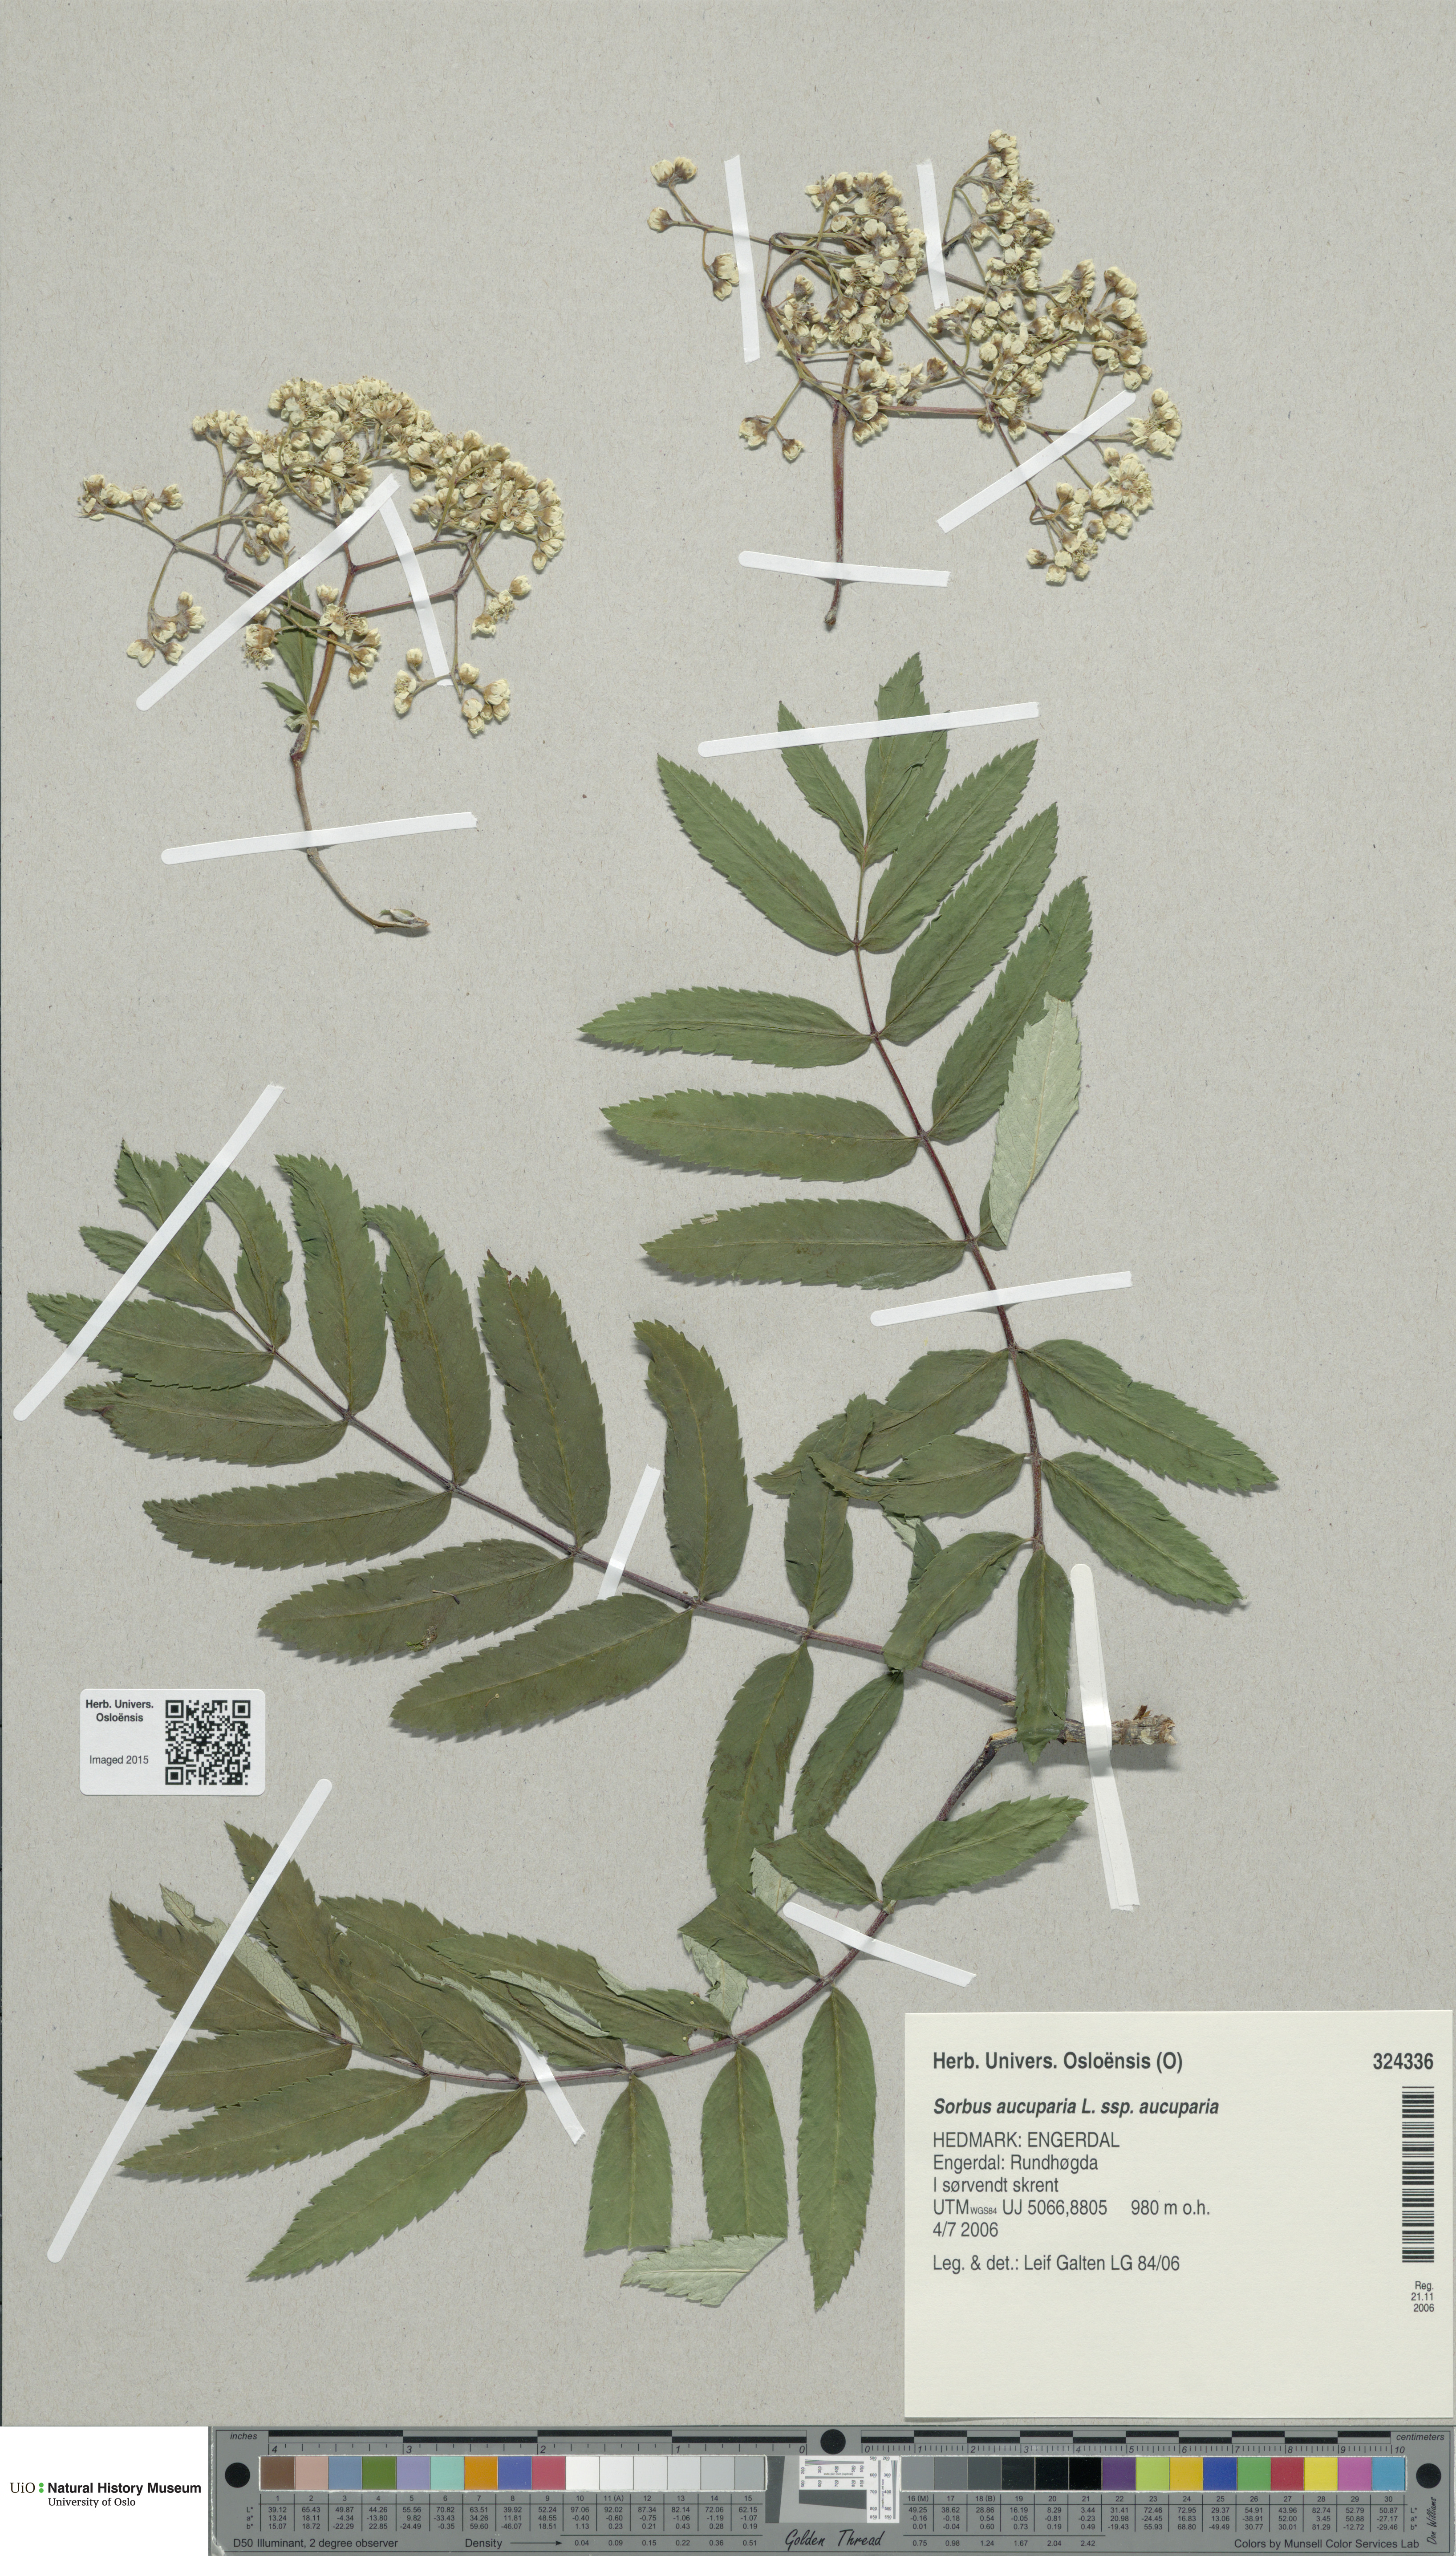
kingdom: Plantae
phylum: Tracheophyta
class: Magnoliopsida
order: Rosales
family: Rosaceae
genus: Sorbus
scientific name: Sorbus aucuparia
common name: Rowan
